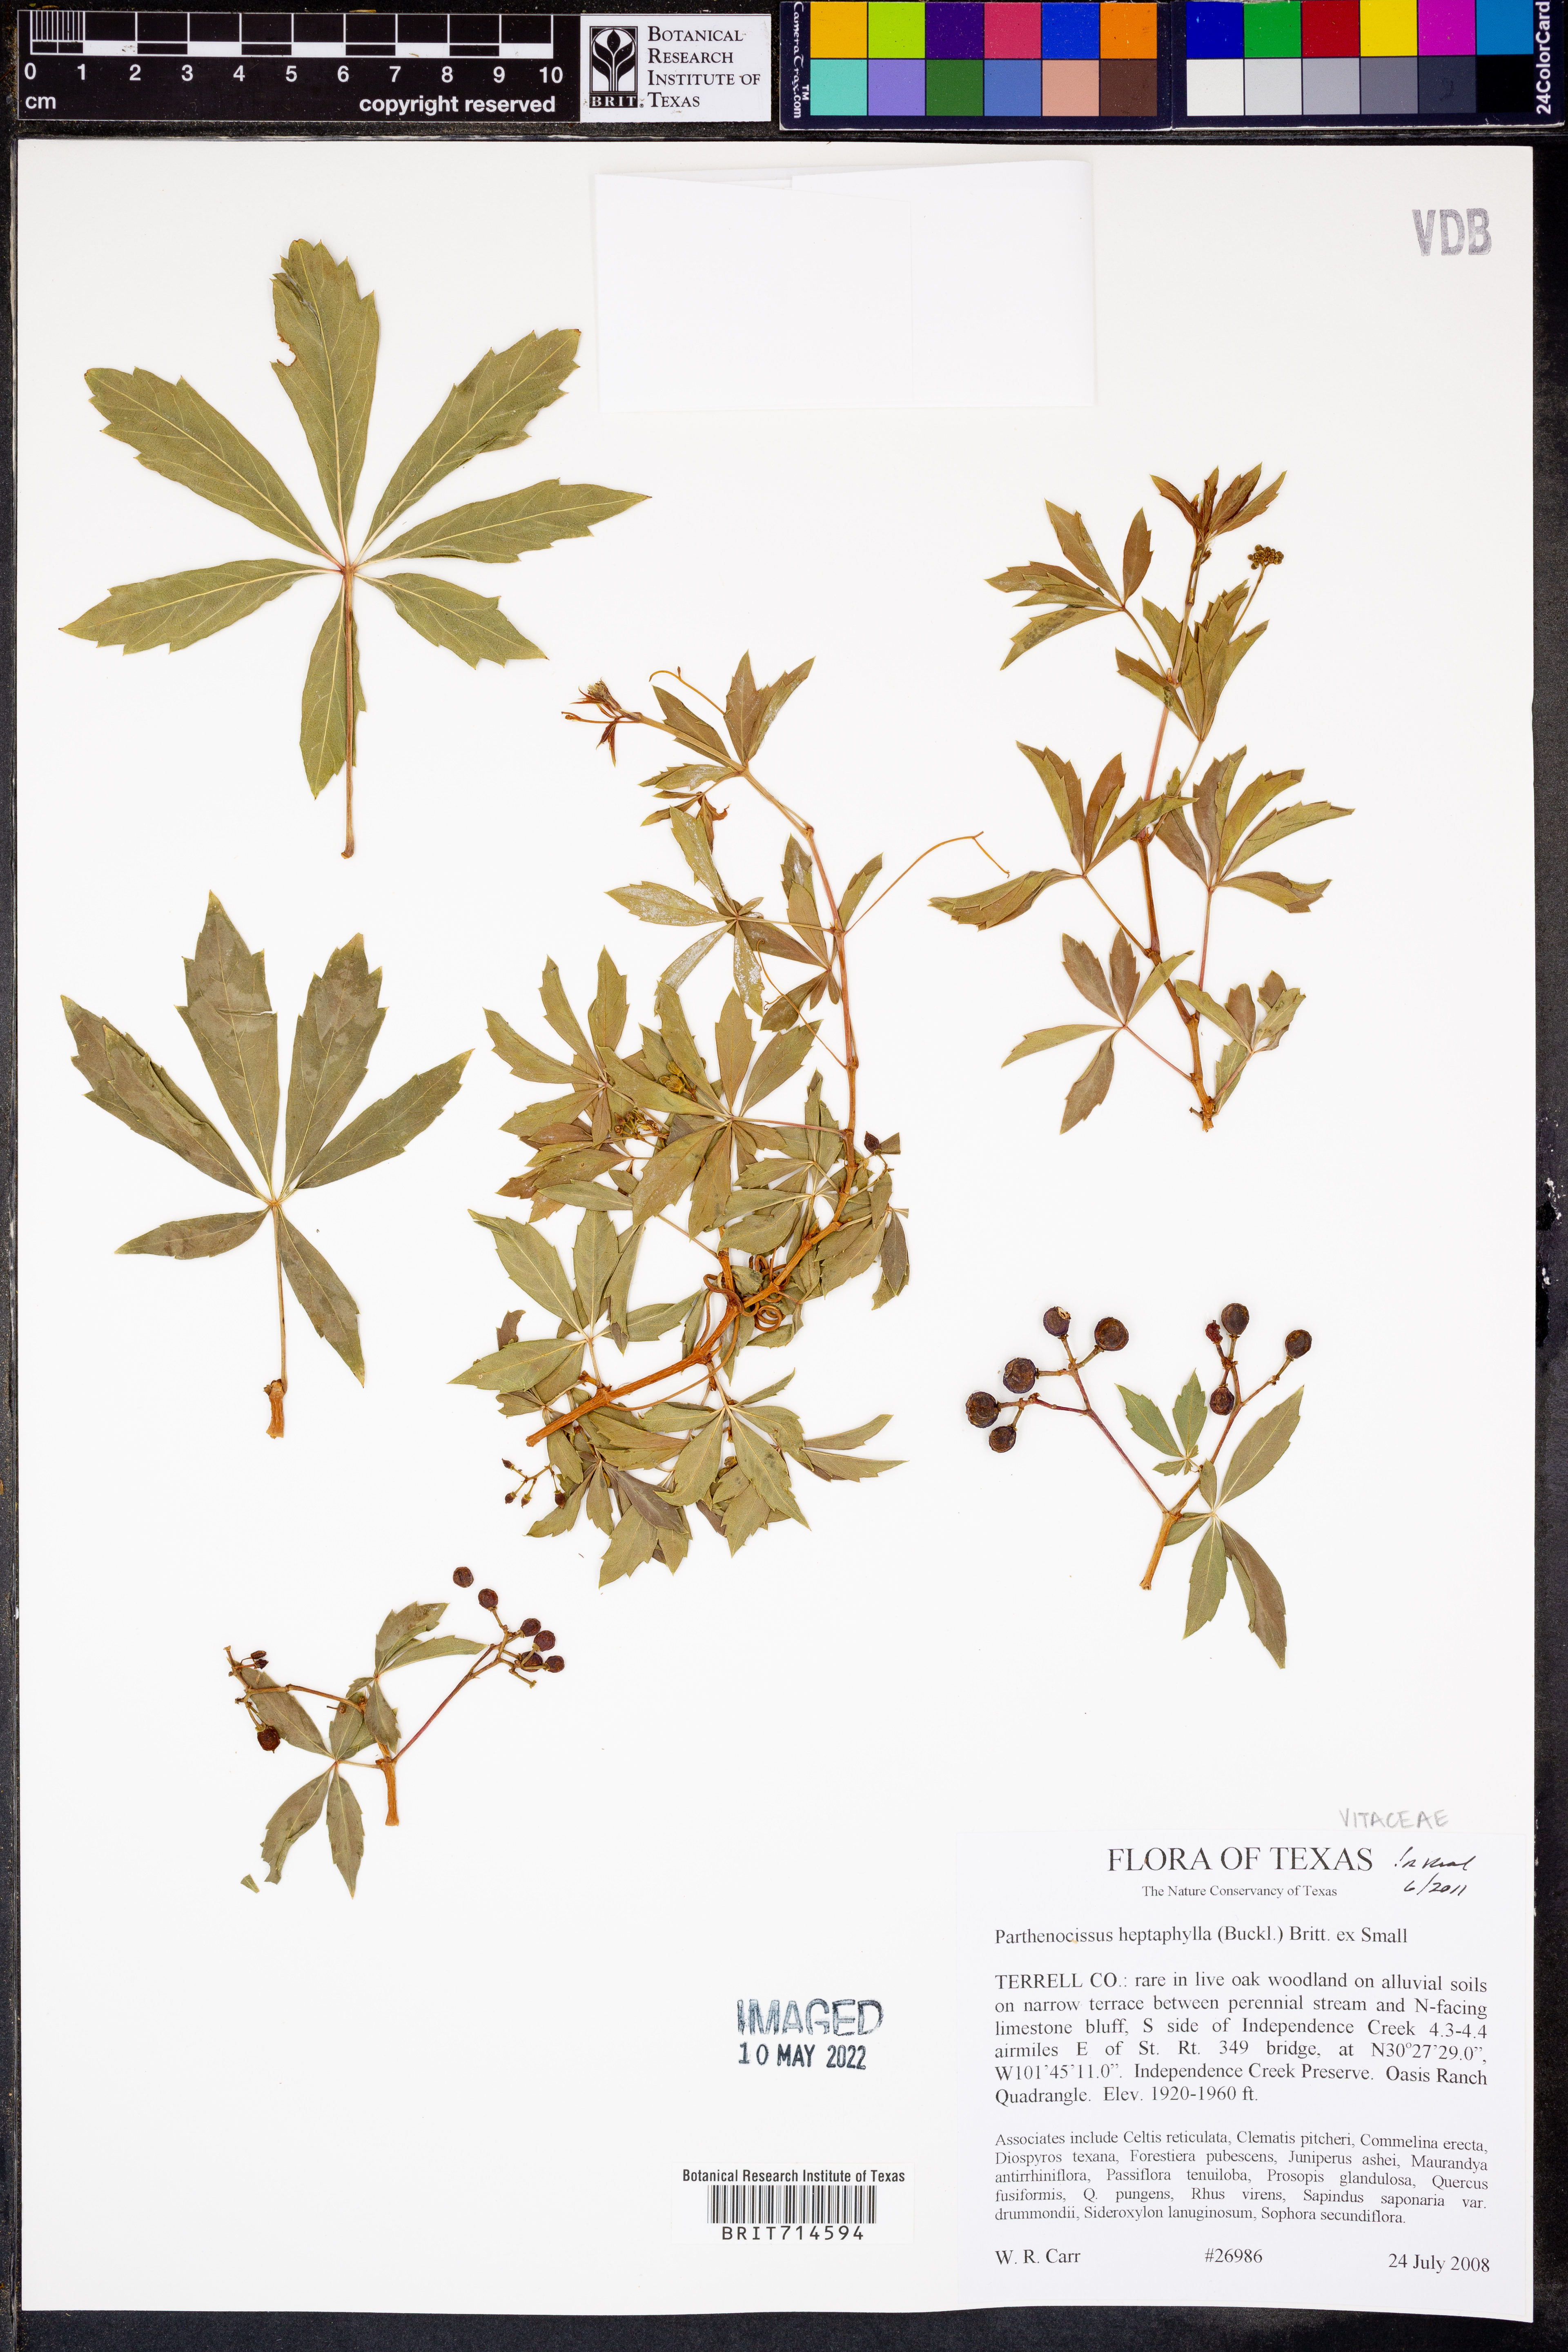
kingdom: Plantae
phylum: Tracheophyta
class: Magnoliopsida
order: Vitales
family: Vitaceae
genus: Parthenocissus
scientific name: Parthenocissus heptaphylla
